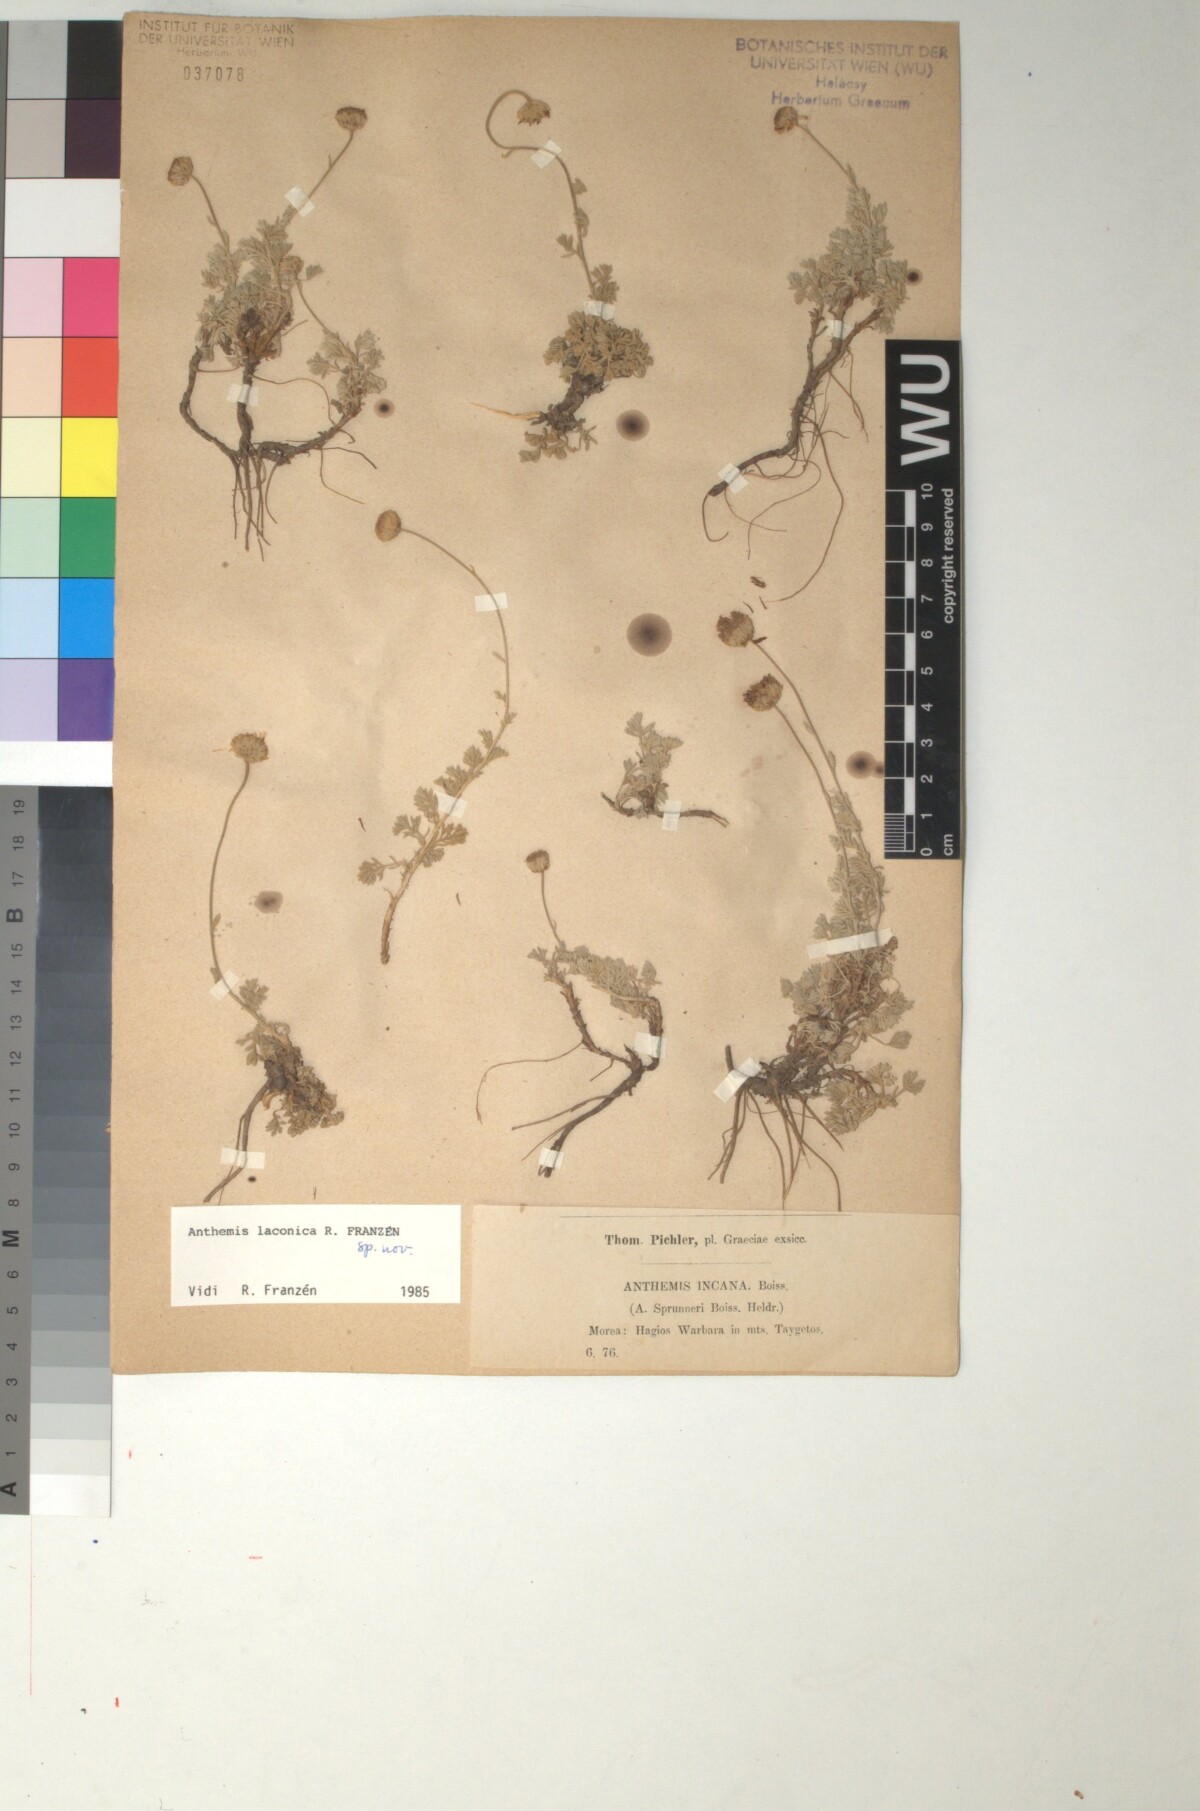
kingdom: Plantae
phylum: Tracheophyta
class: Magnoliopsida
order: Asterales
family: Asteraceae
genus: Anthemis
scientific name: Anthemis laconica
